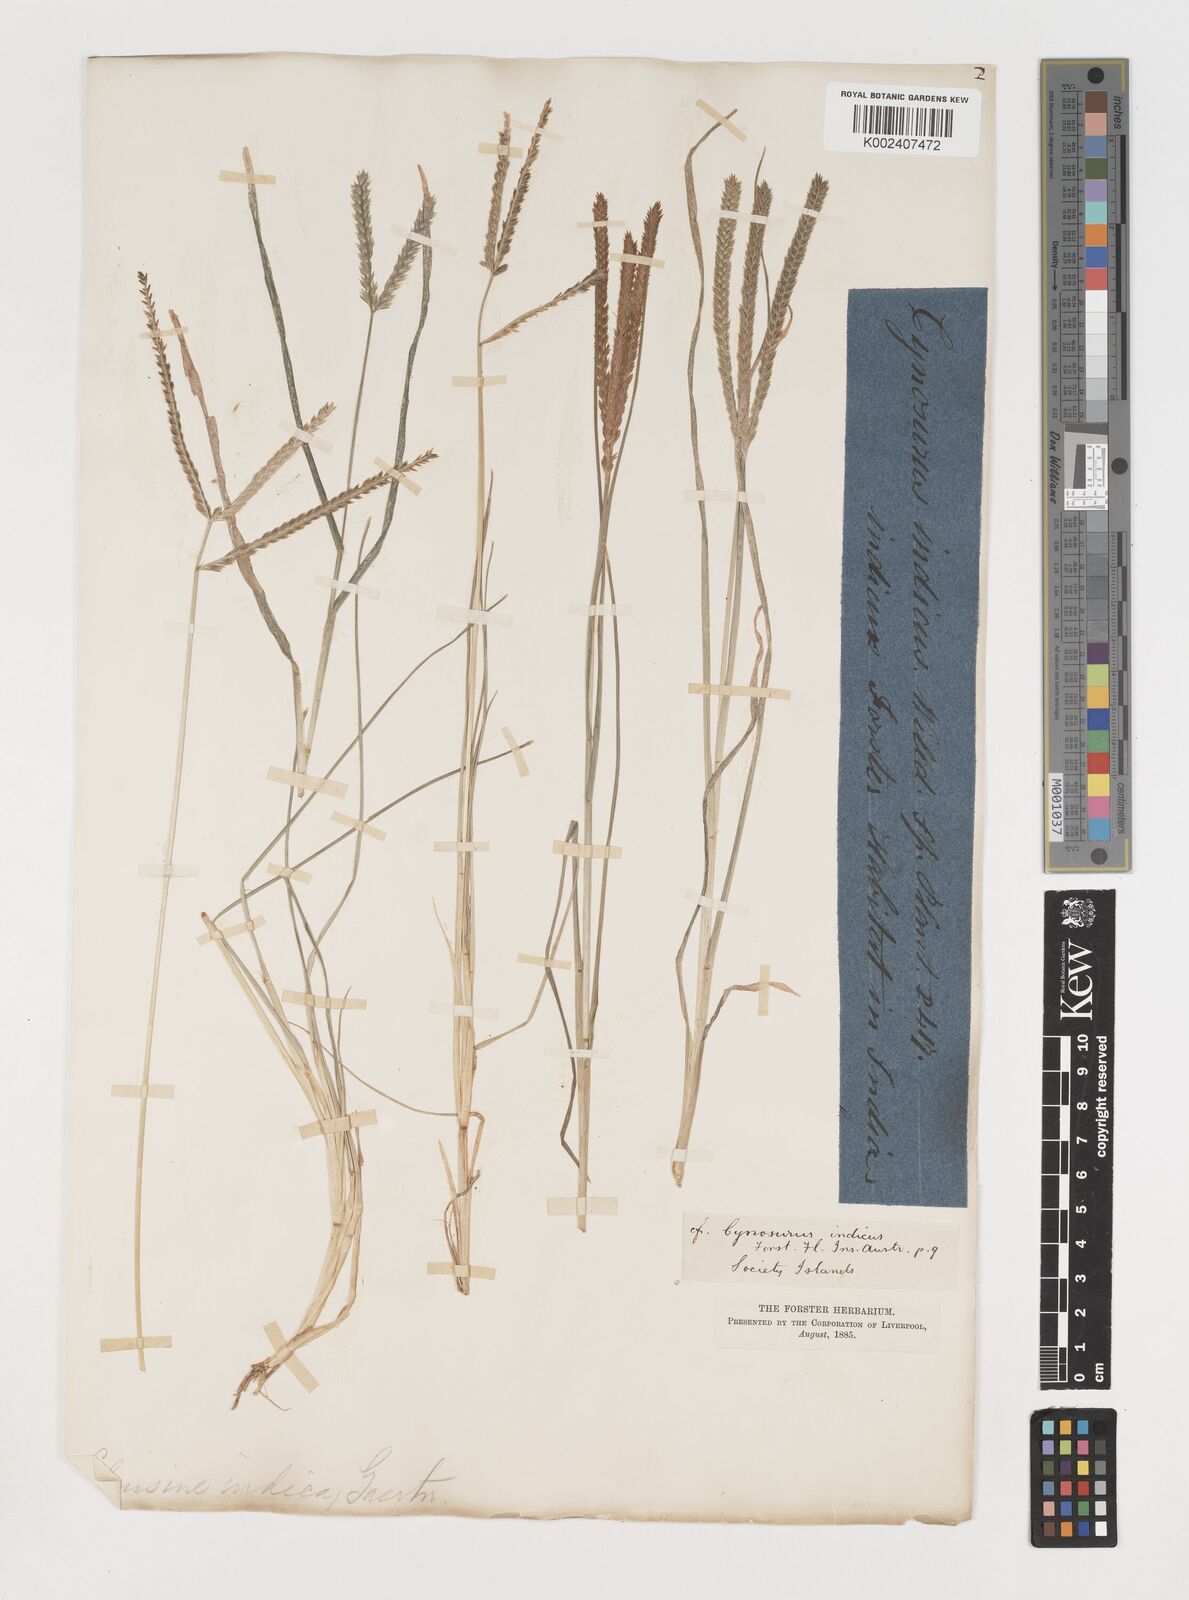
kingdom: Plantae
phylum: Tracheophyta
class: Liliopsida
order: Poales
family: Poaceae
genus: Eleusine
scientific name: Eleusine indica
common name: Yard-grass
